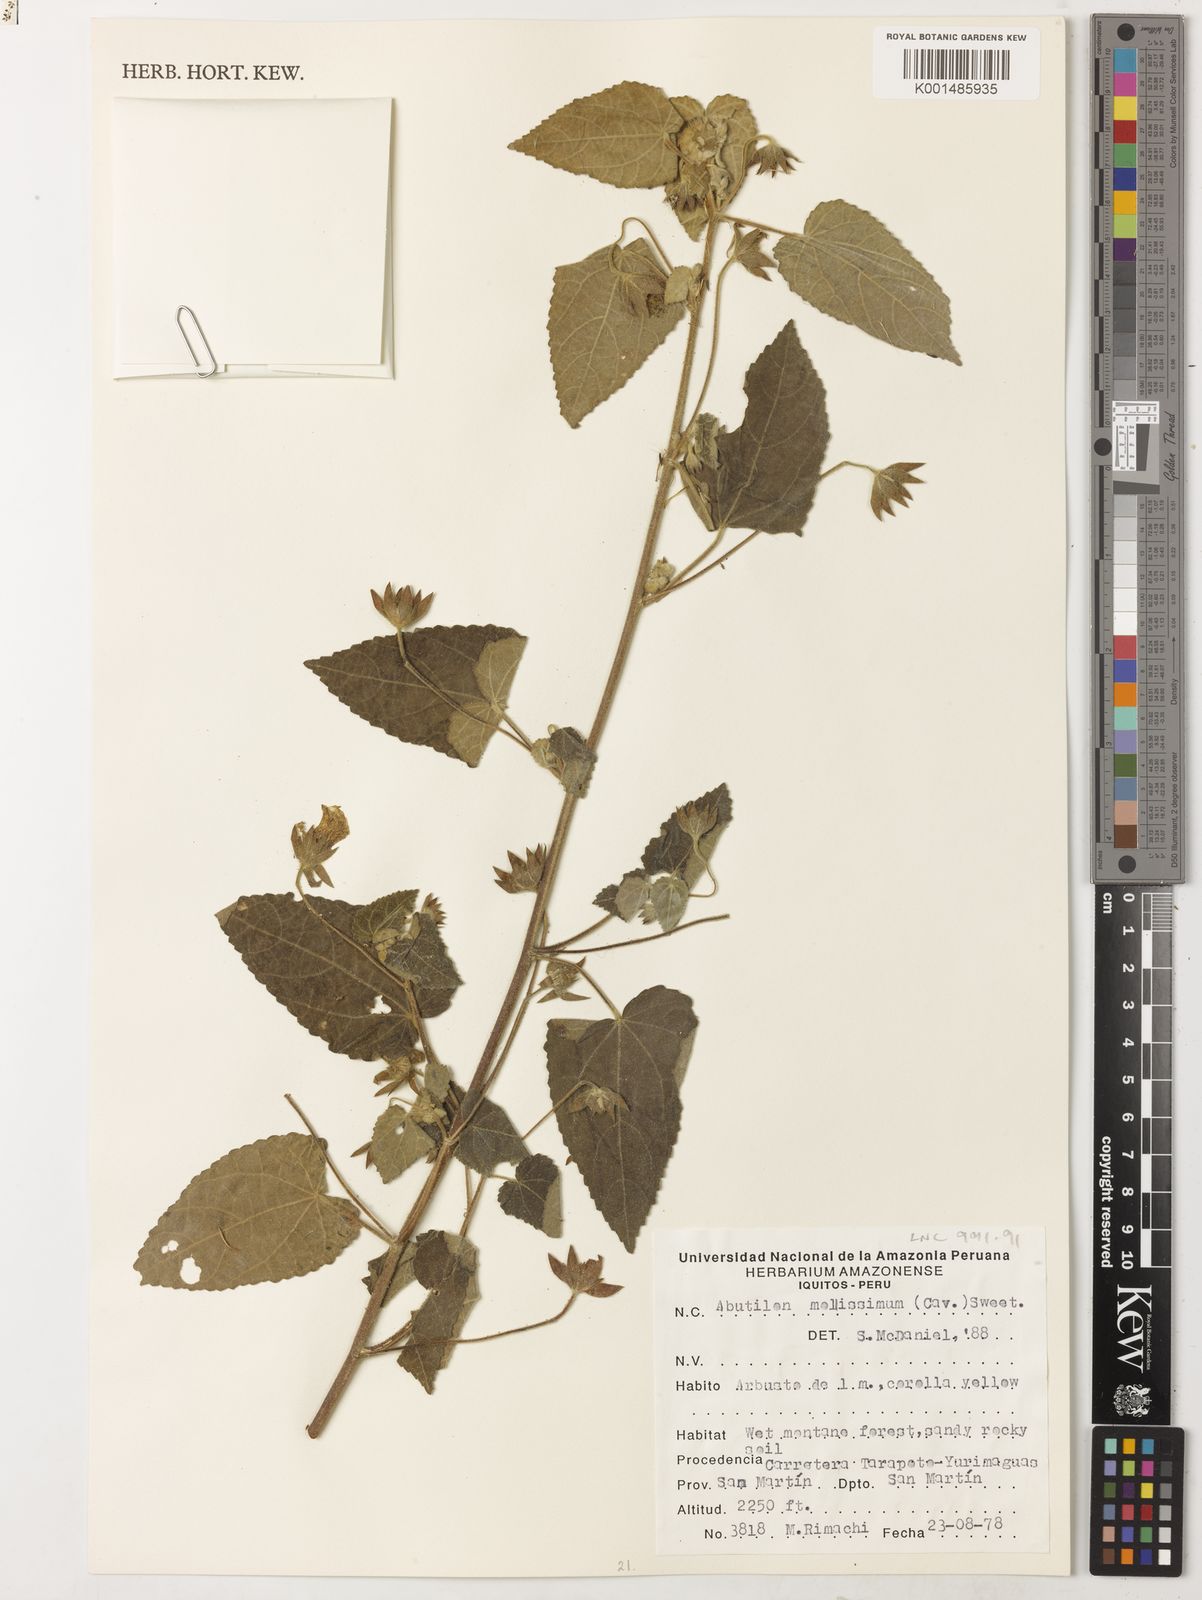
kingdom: Plantae
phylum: Tracheophyta
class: Magnoliopsida
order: Malvales
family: Malvaceae
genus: Abutilon
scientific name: Abutilon mollissimum
